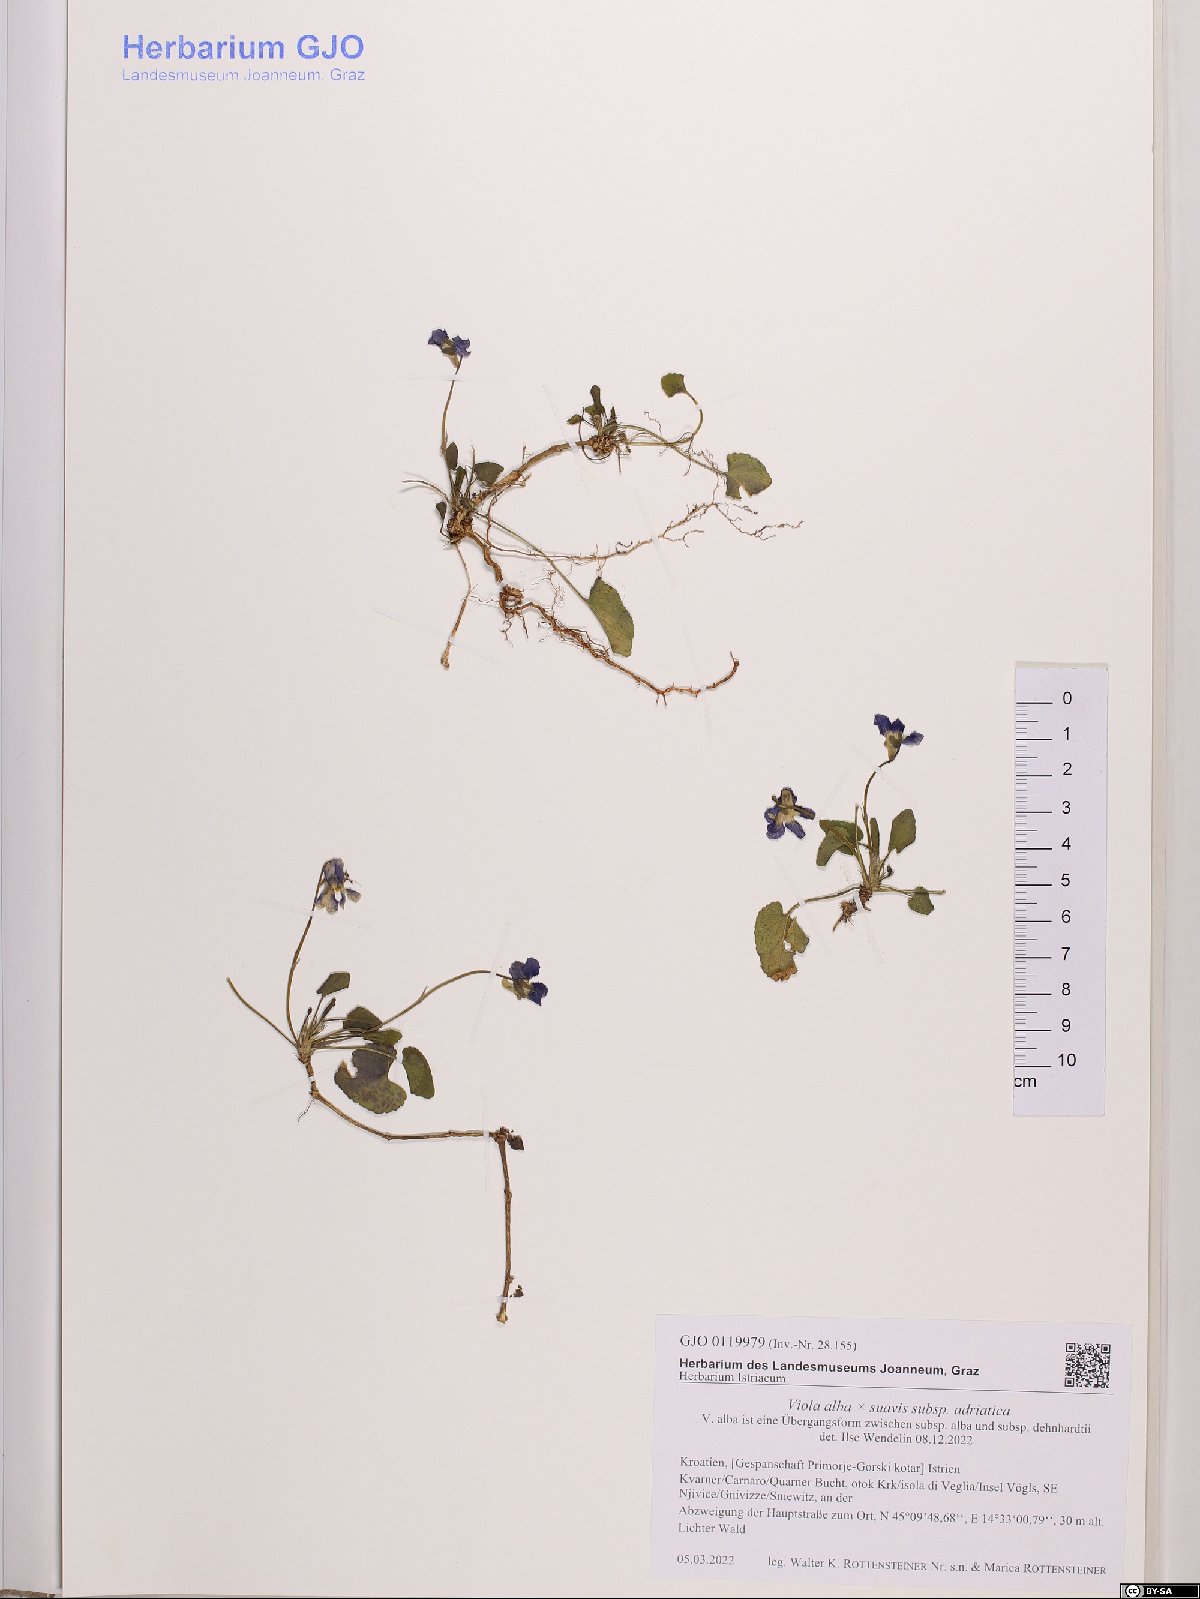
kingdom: Plantae
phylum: Tracheophyta
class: Magnoliopsida
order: Malpighiales
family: Violaceae
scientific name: Violaceae
